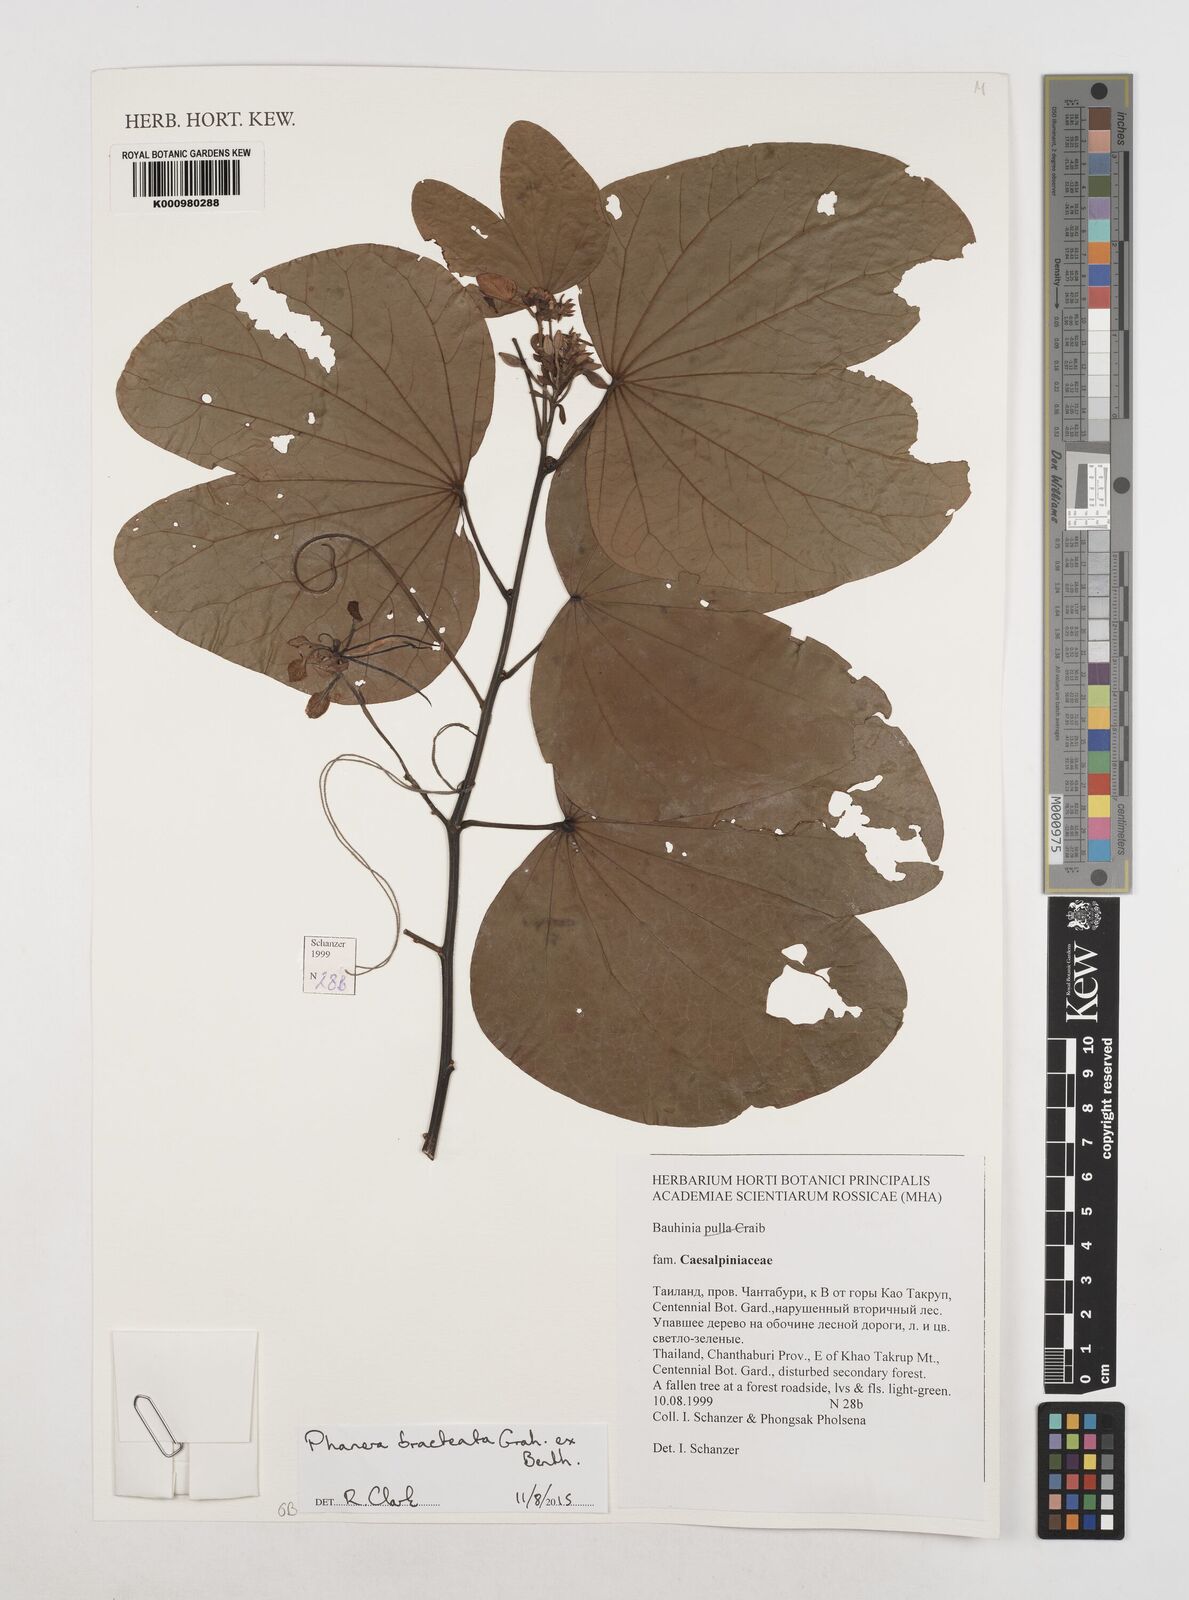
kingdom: Plantae
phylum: Tracheophyta
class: Magnoliopsida
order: Fabales
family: Fabaceae
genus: Phanera
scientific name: Phanera bracteata
